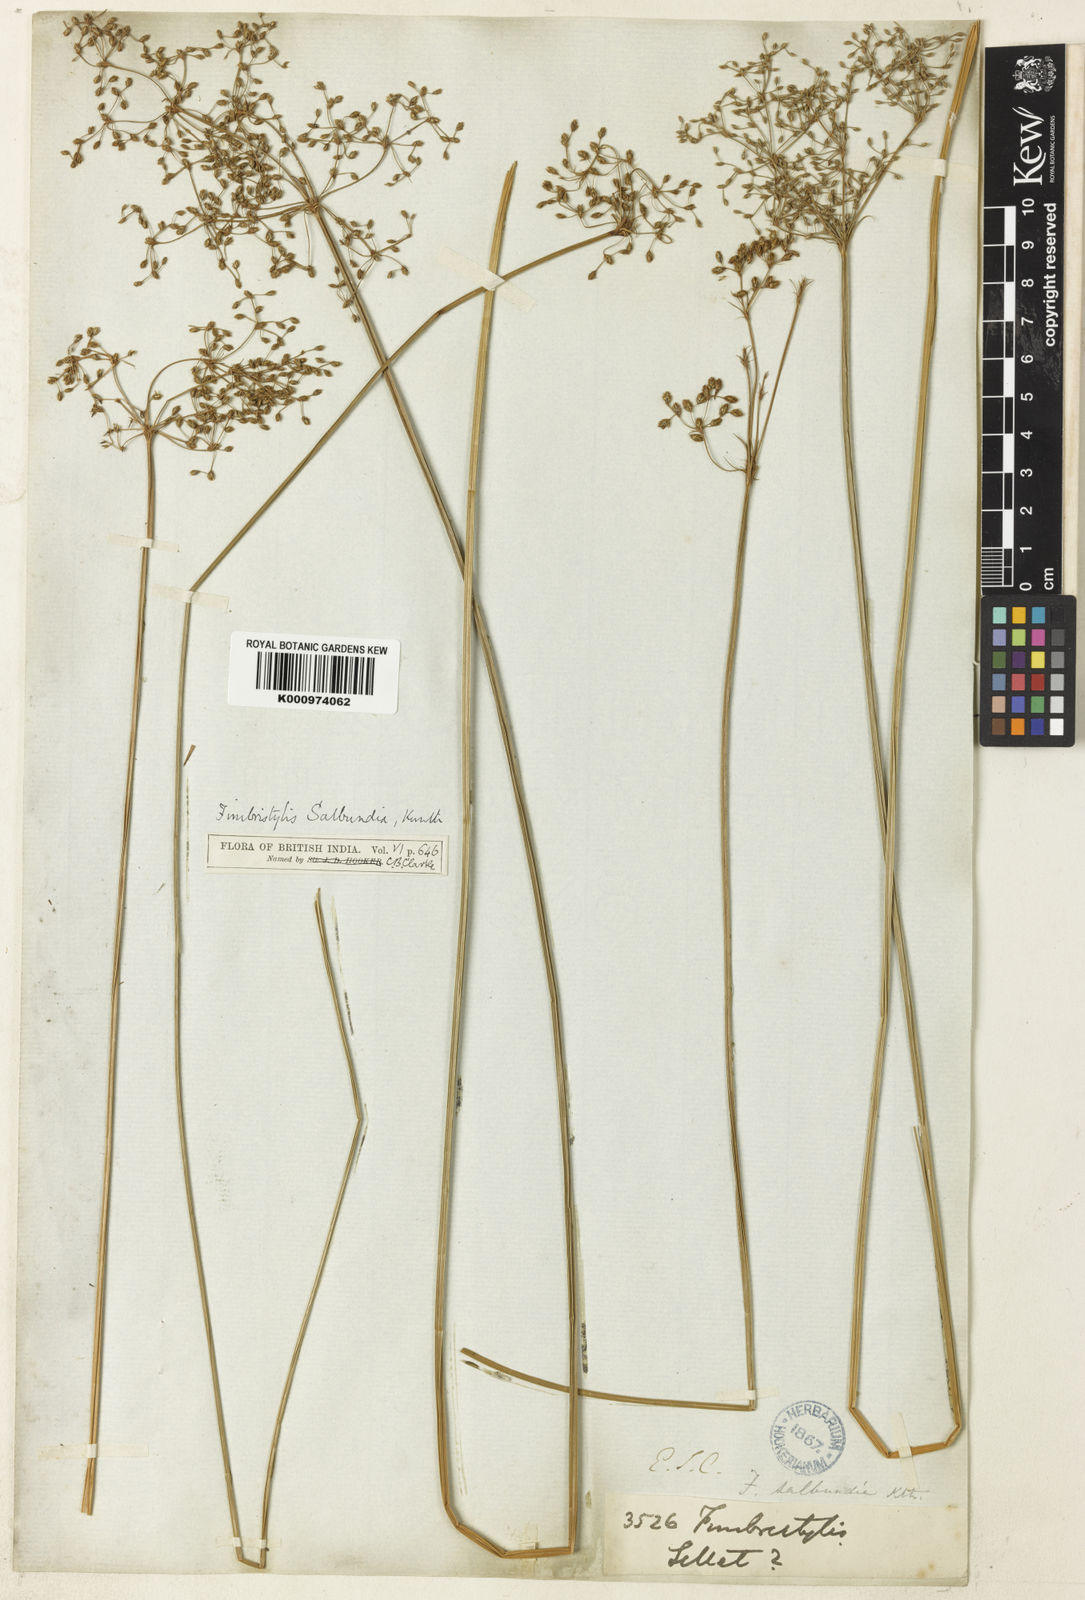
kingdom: Plantae
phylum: Tracheophyta
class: Liliopsida
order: Poales
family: Cyperaceae
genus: Fimbristylis
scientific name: Fimbristylis salbundia
